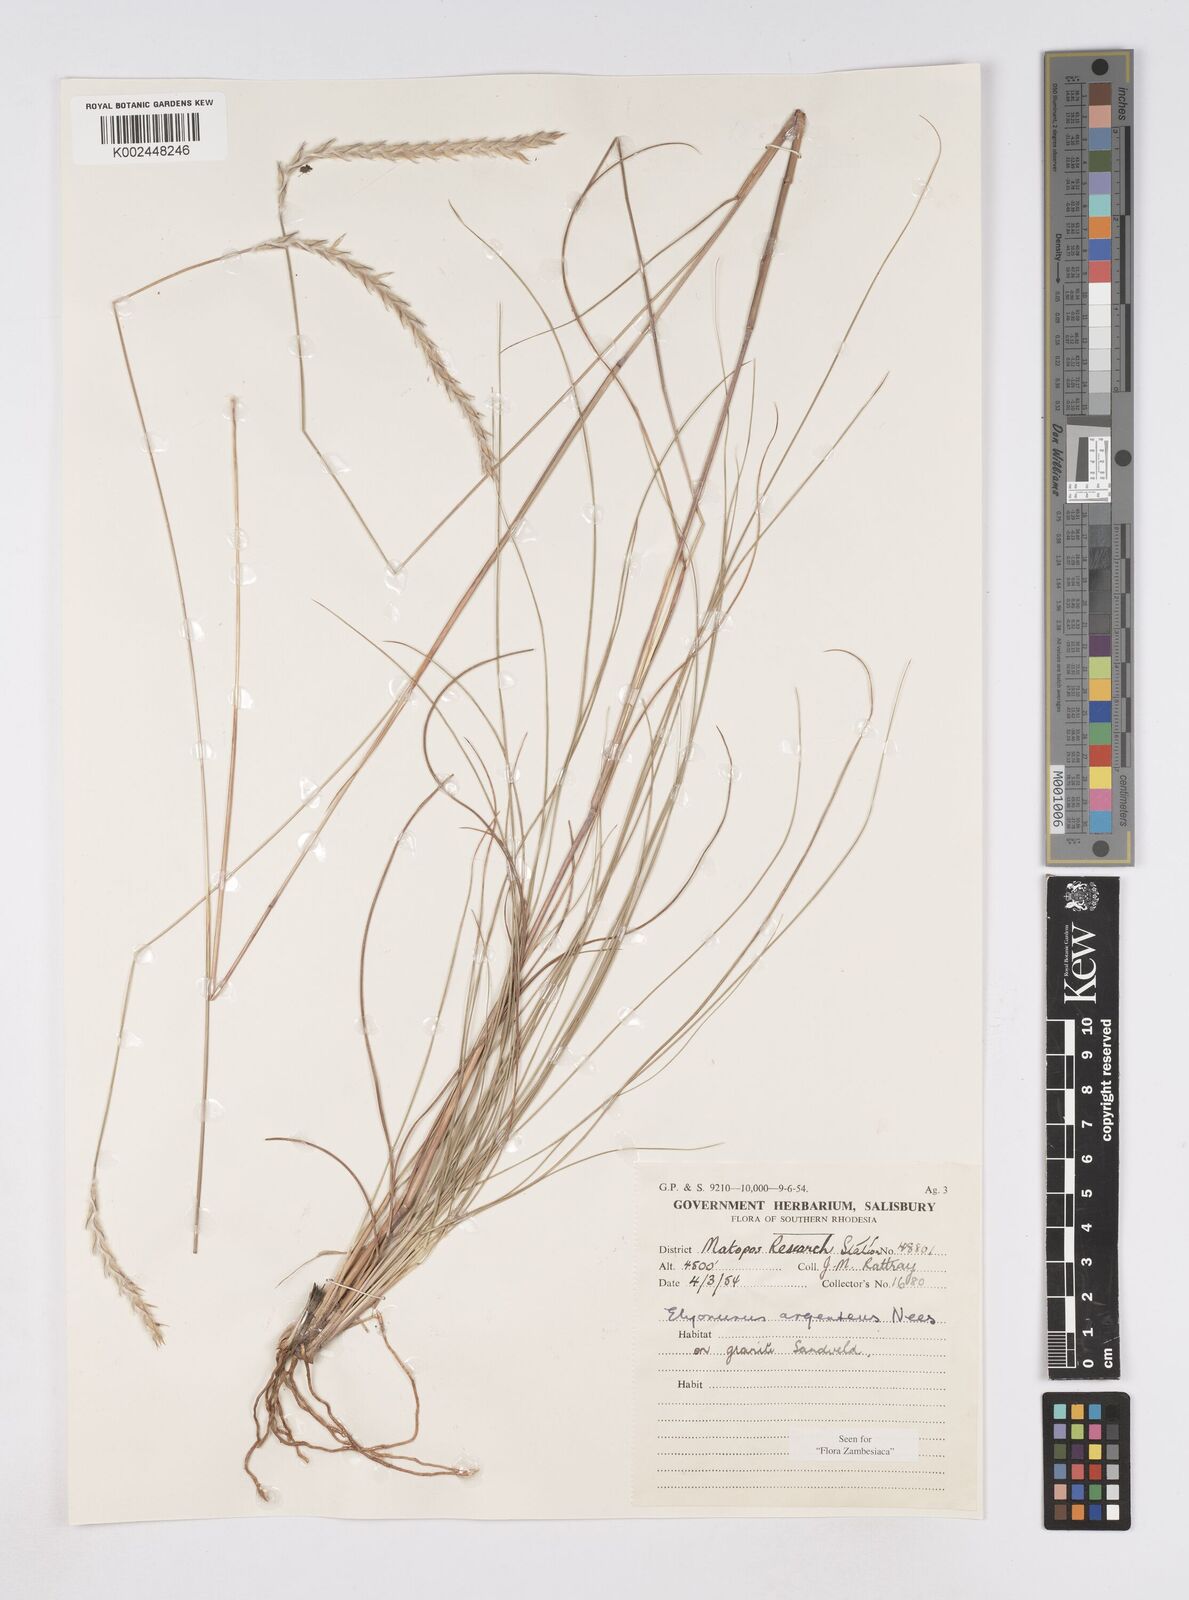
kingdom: Plantae
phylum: Tracheophyta
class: Liliopsida
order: Poales
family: Poaceae
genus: Elionurus
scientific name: Elionurus muticus
